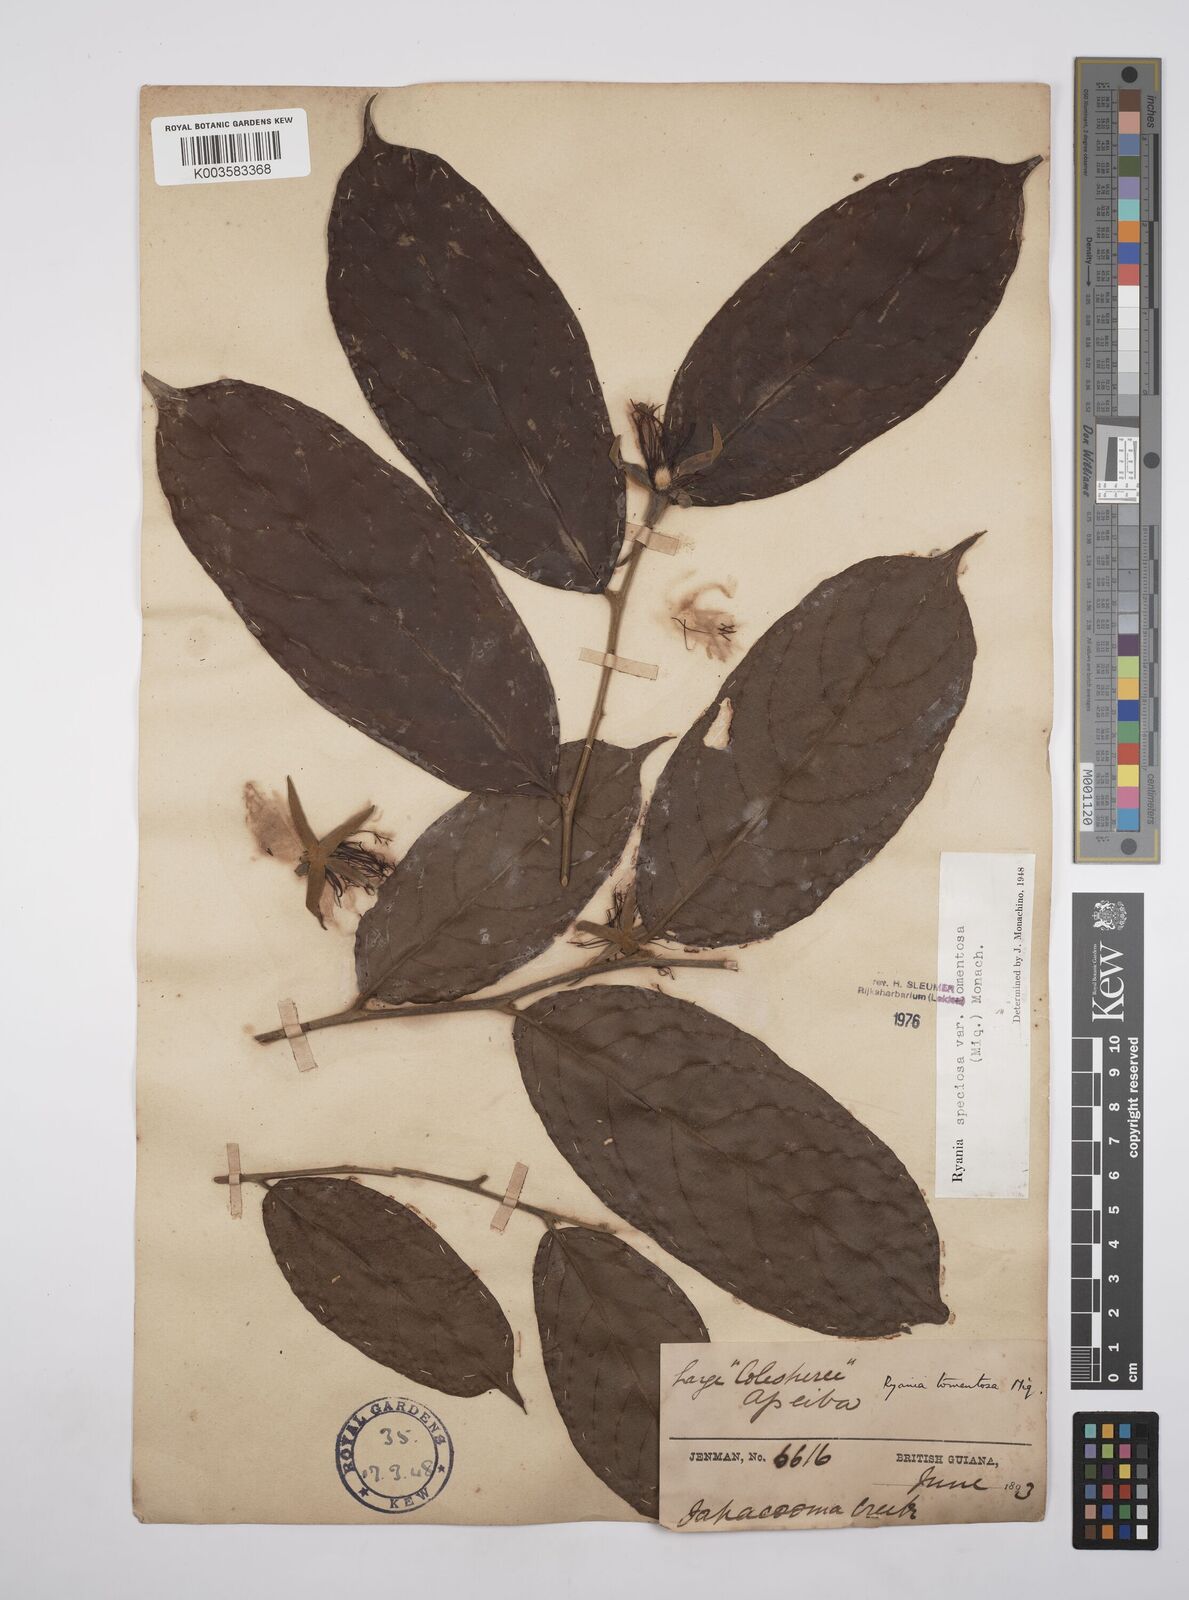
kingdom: Plantae
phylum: Tracheophyta
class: Magnoliopsida
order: Malpighiales
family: Salicaceae
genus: Ryania
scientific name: Ryania speciosa
